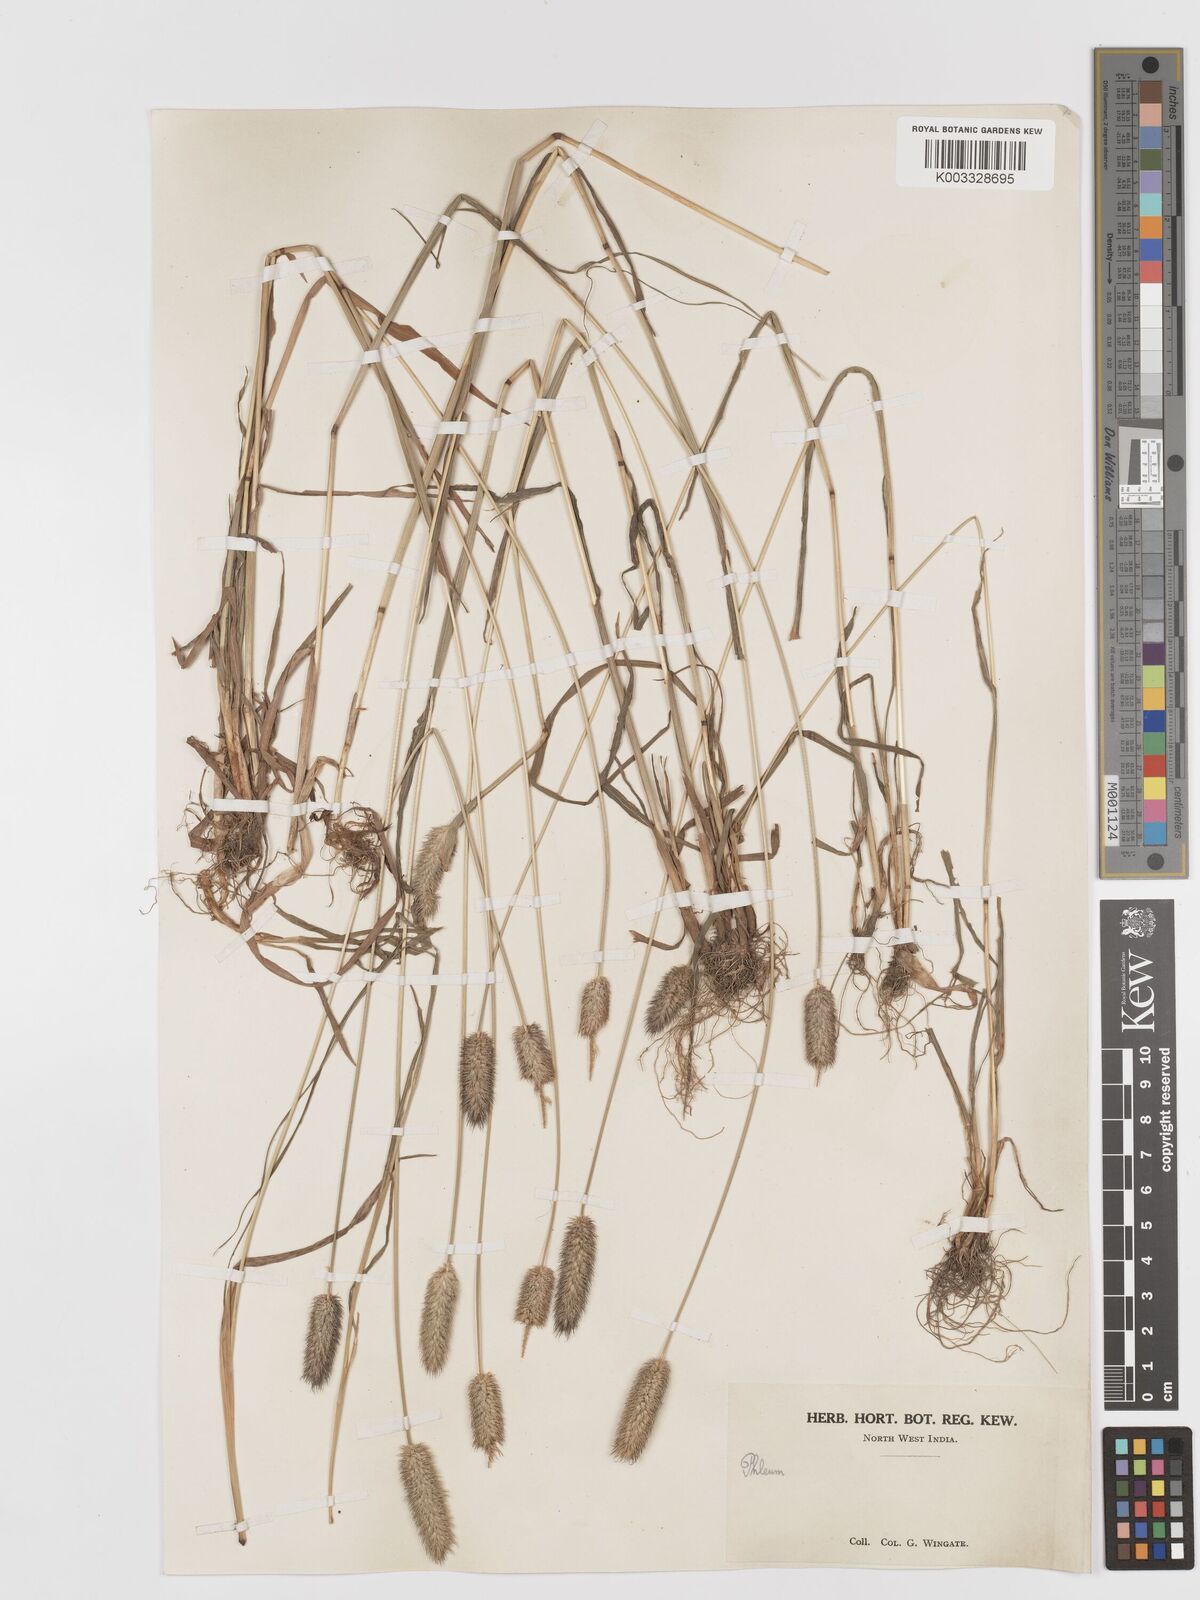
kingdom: Plantae
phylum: Tracheophyta
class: Liliopsida
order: Poales
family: Poaceae
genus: Phleum
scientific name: Phleum alpinum
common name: Alpine cat's-tail
